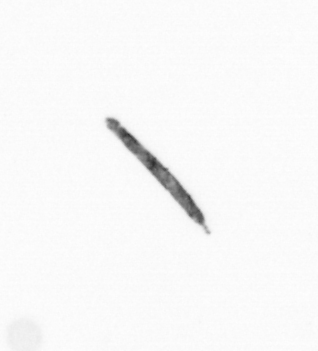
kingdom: Chromista
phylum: Ochrophyta
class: Bacillariophyceae
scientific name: Bacillariophyceae
